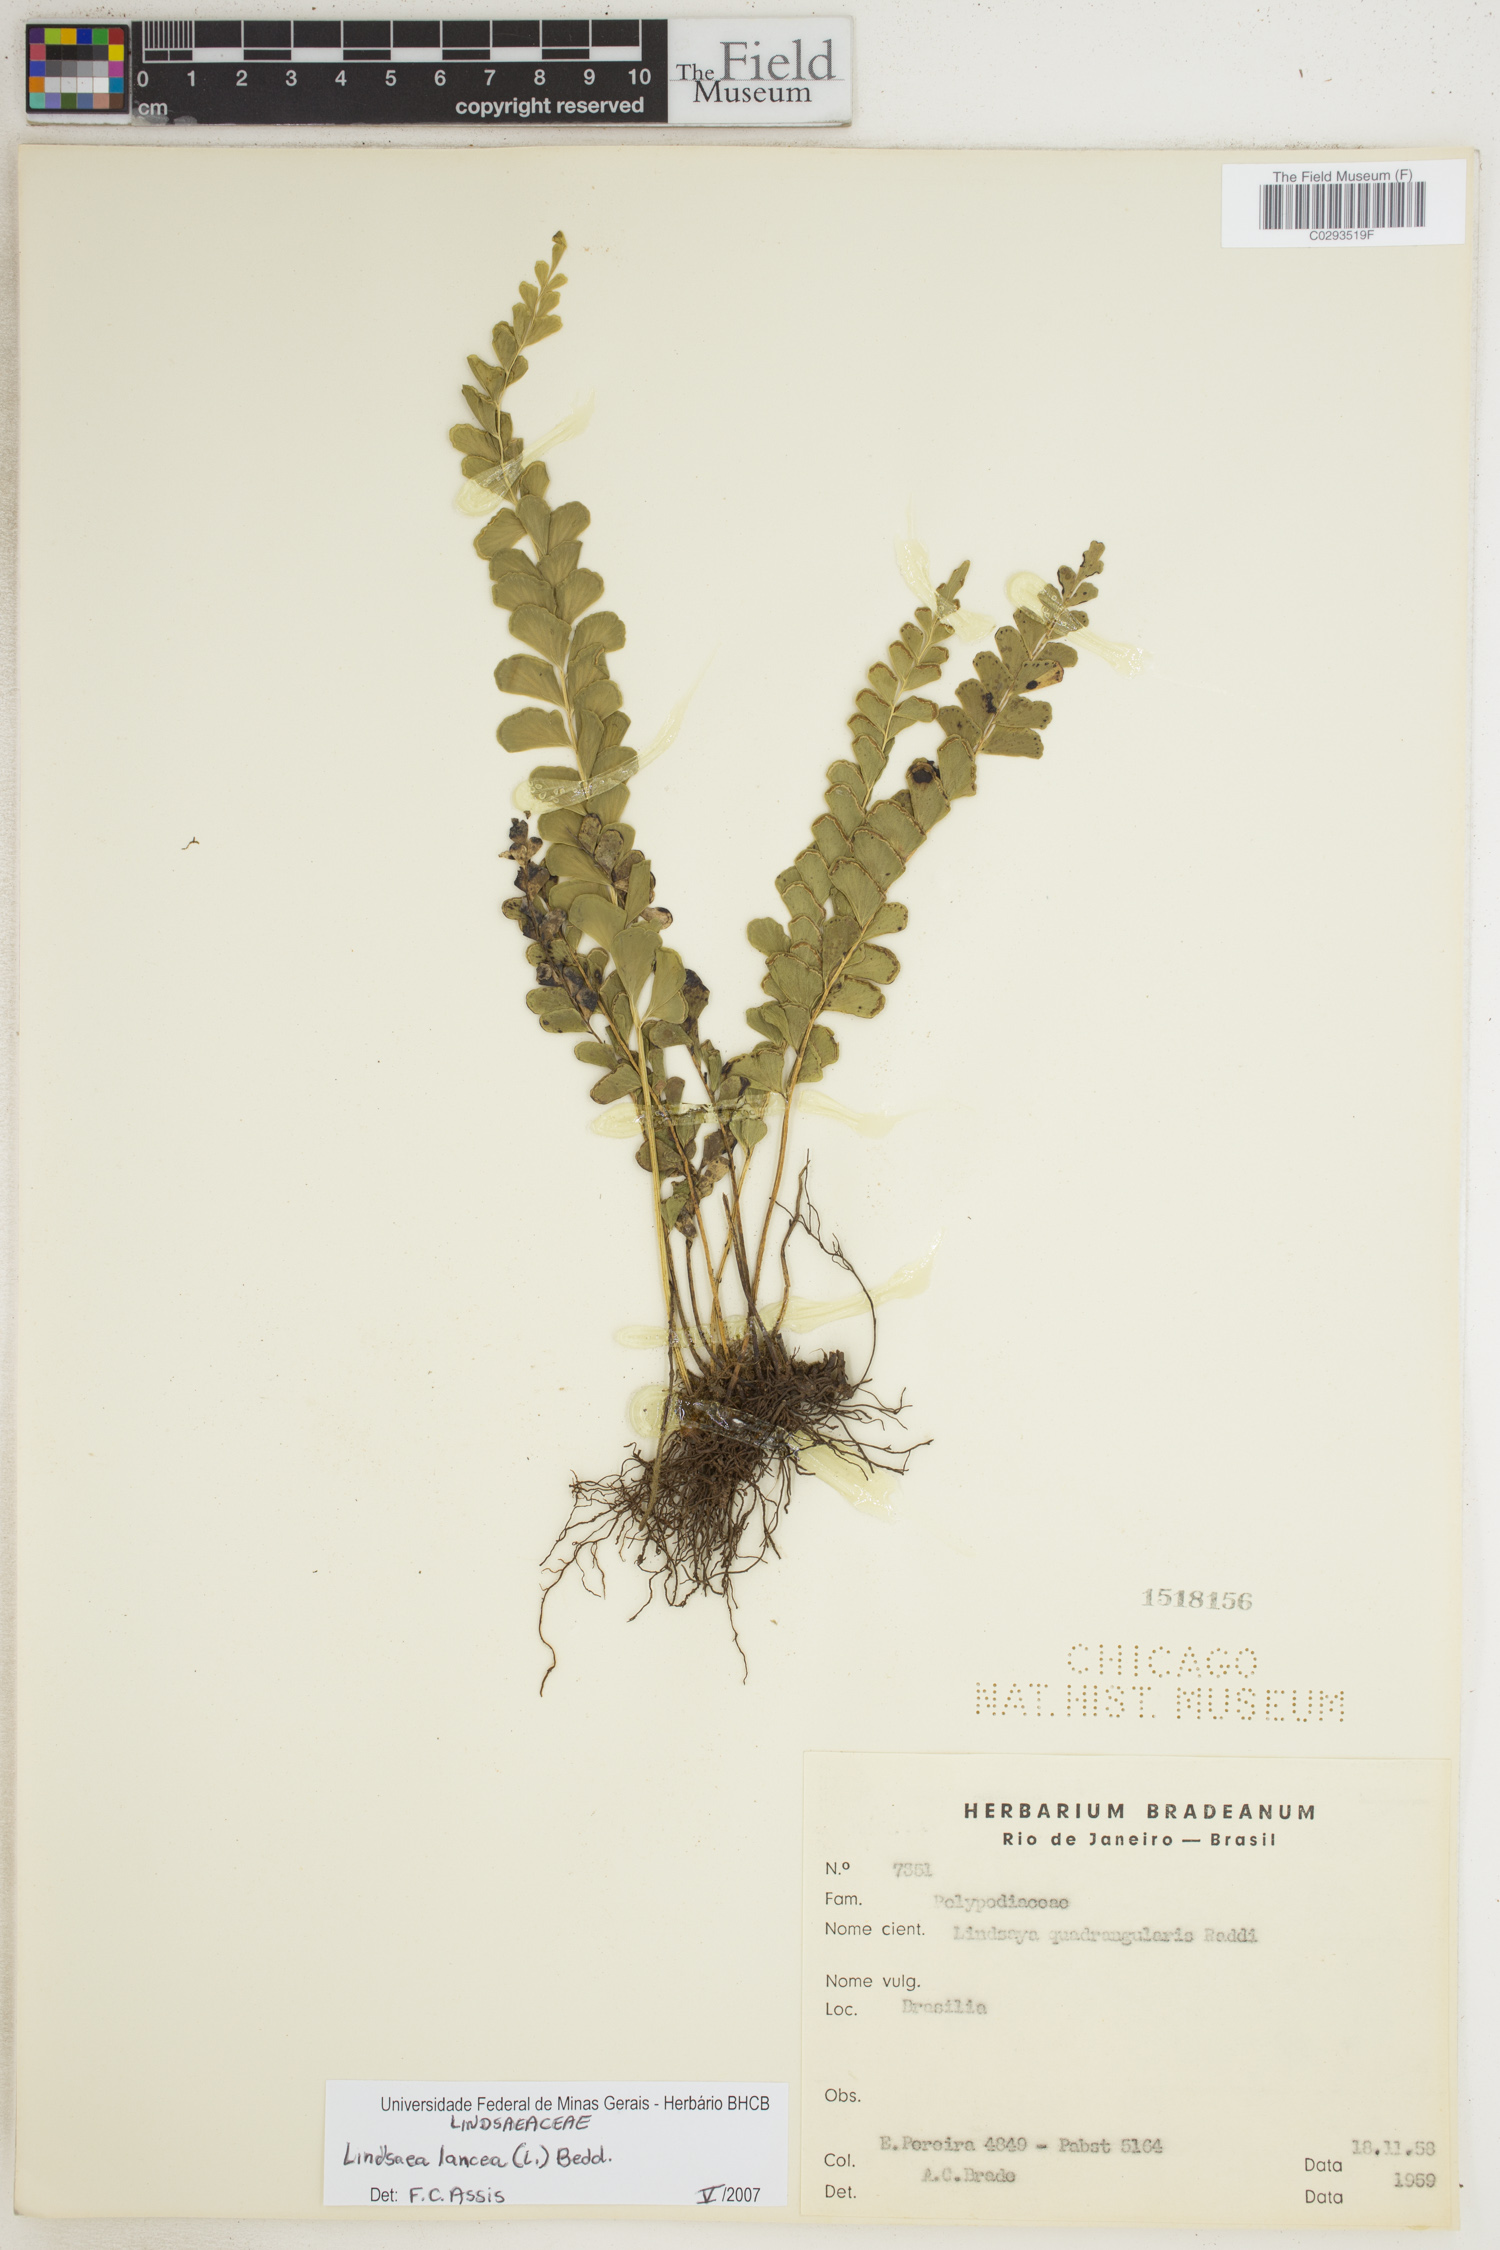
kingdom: Plantae
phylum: Tracheophyta
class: Polypodiopsida
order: Polypodiales
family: Lindsaeaceae
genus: Lindsaea
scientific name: Lindsaea lancea
